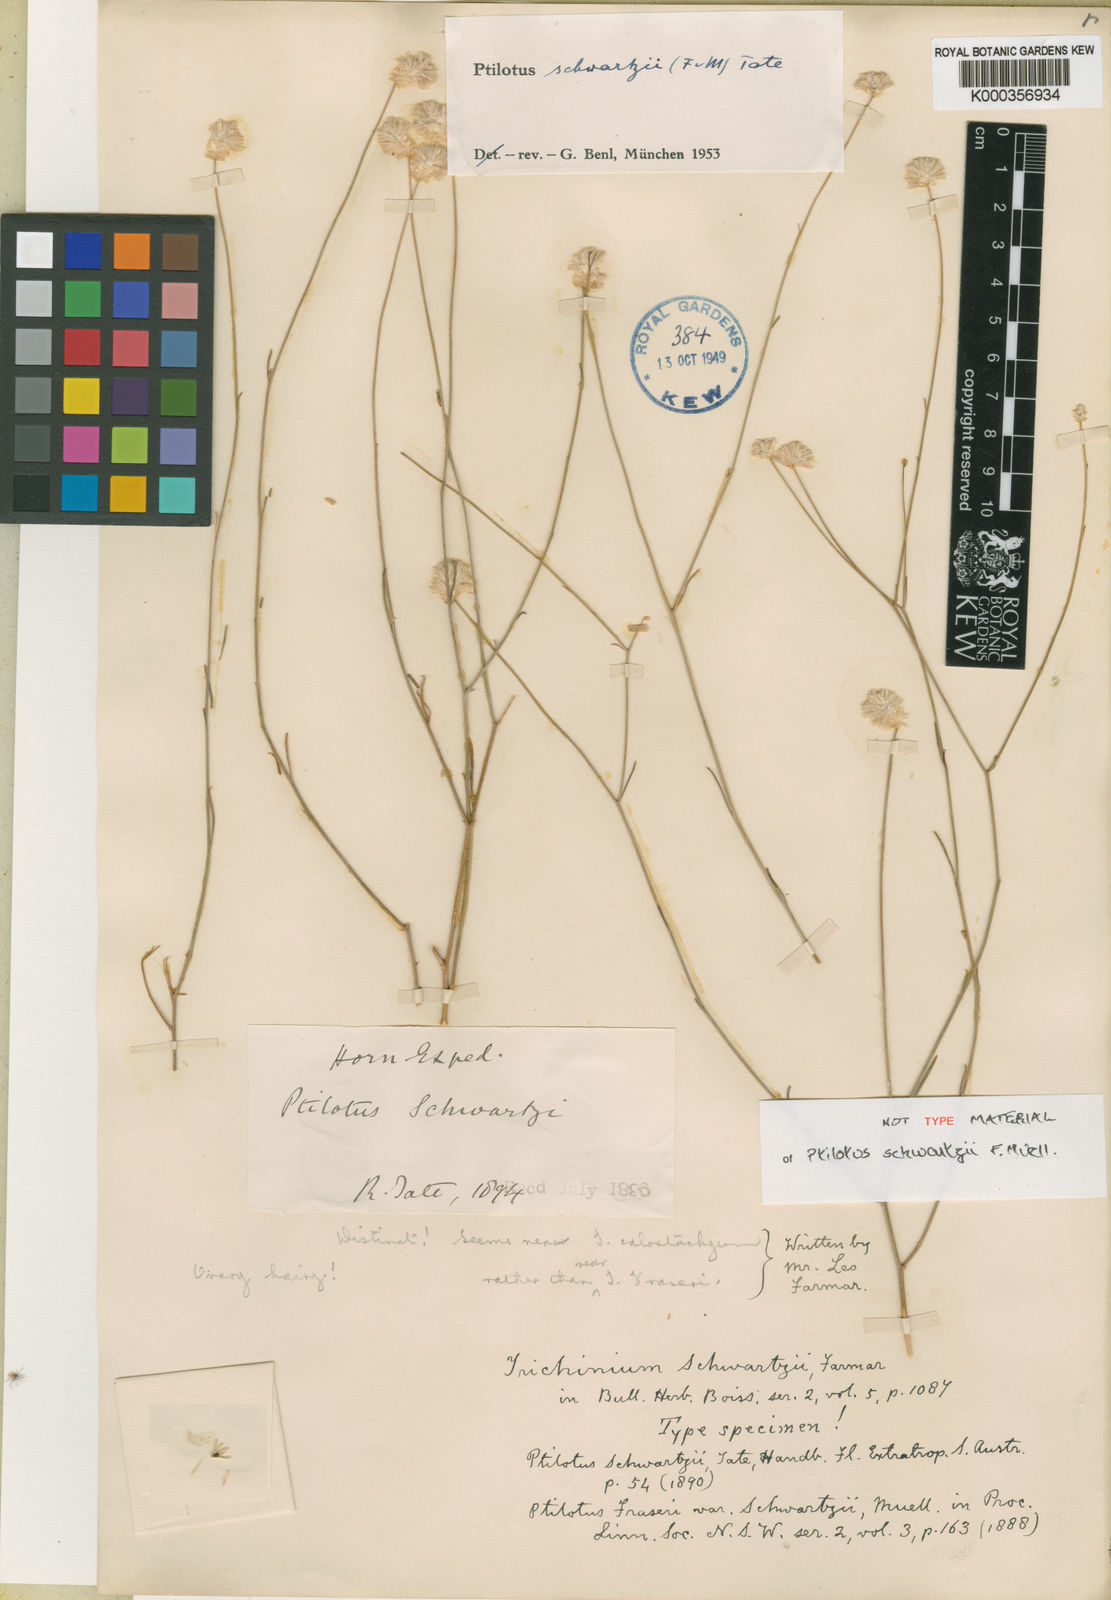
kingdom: Plantae
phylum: Tracheophyta
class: Magnoliopsida
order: Caryophyllales
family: Amaranthaceae
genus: Ptilotus
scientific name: Ptilotus schwartzii
